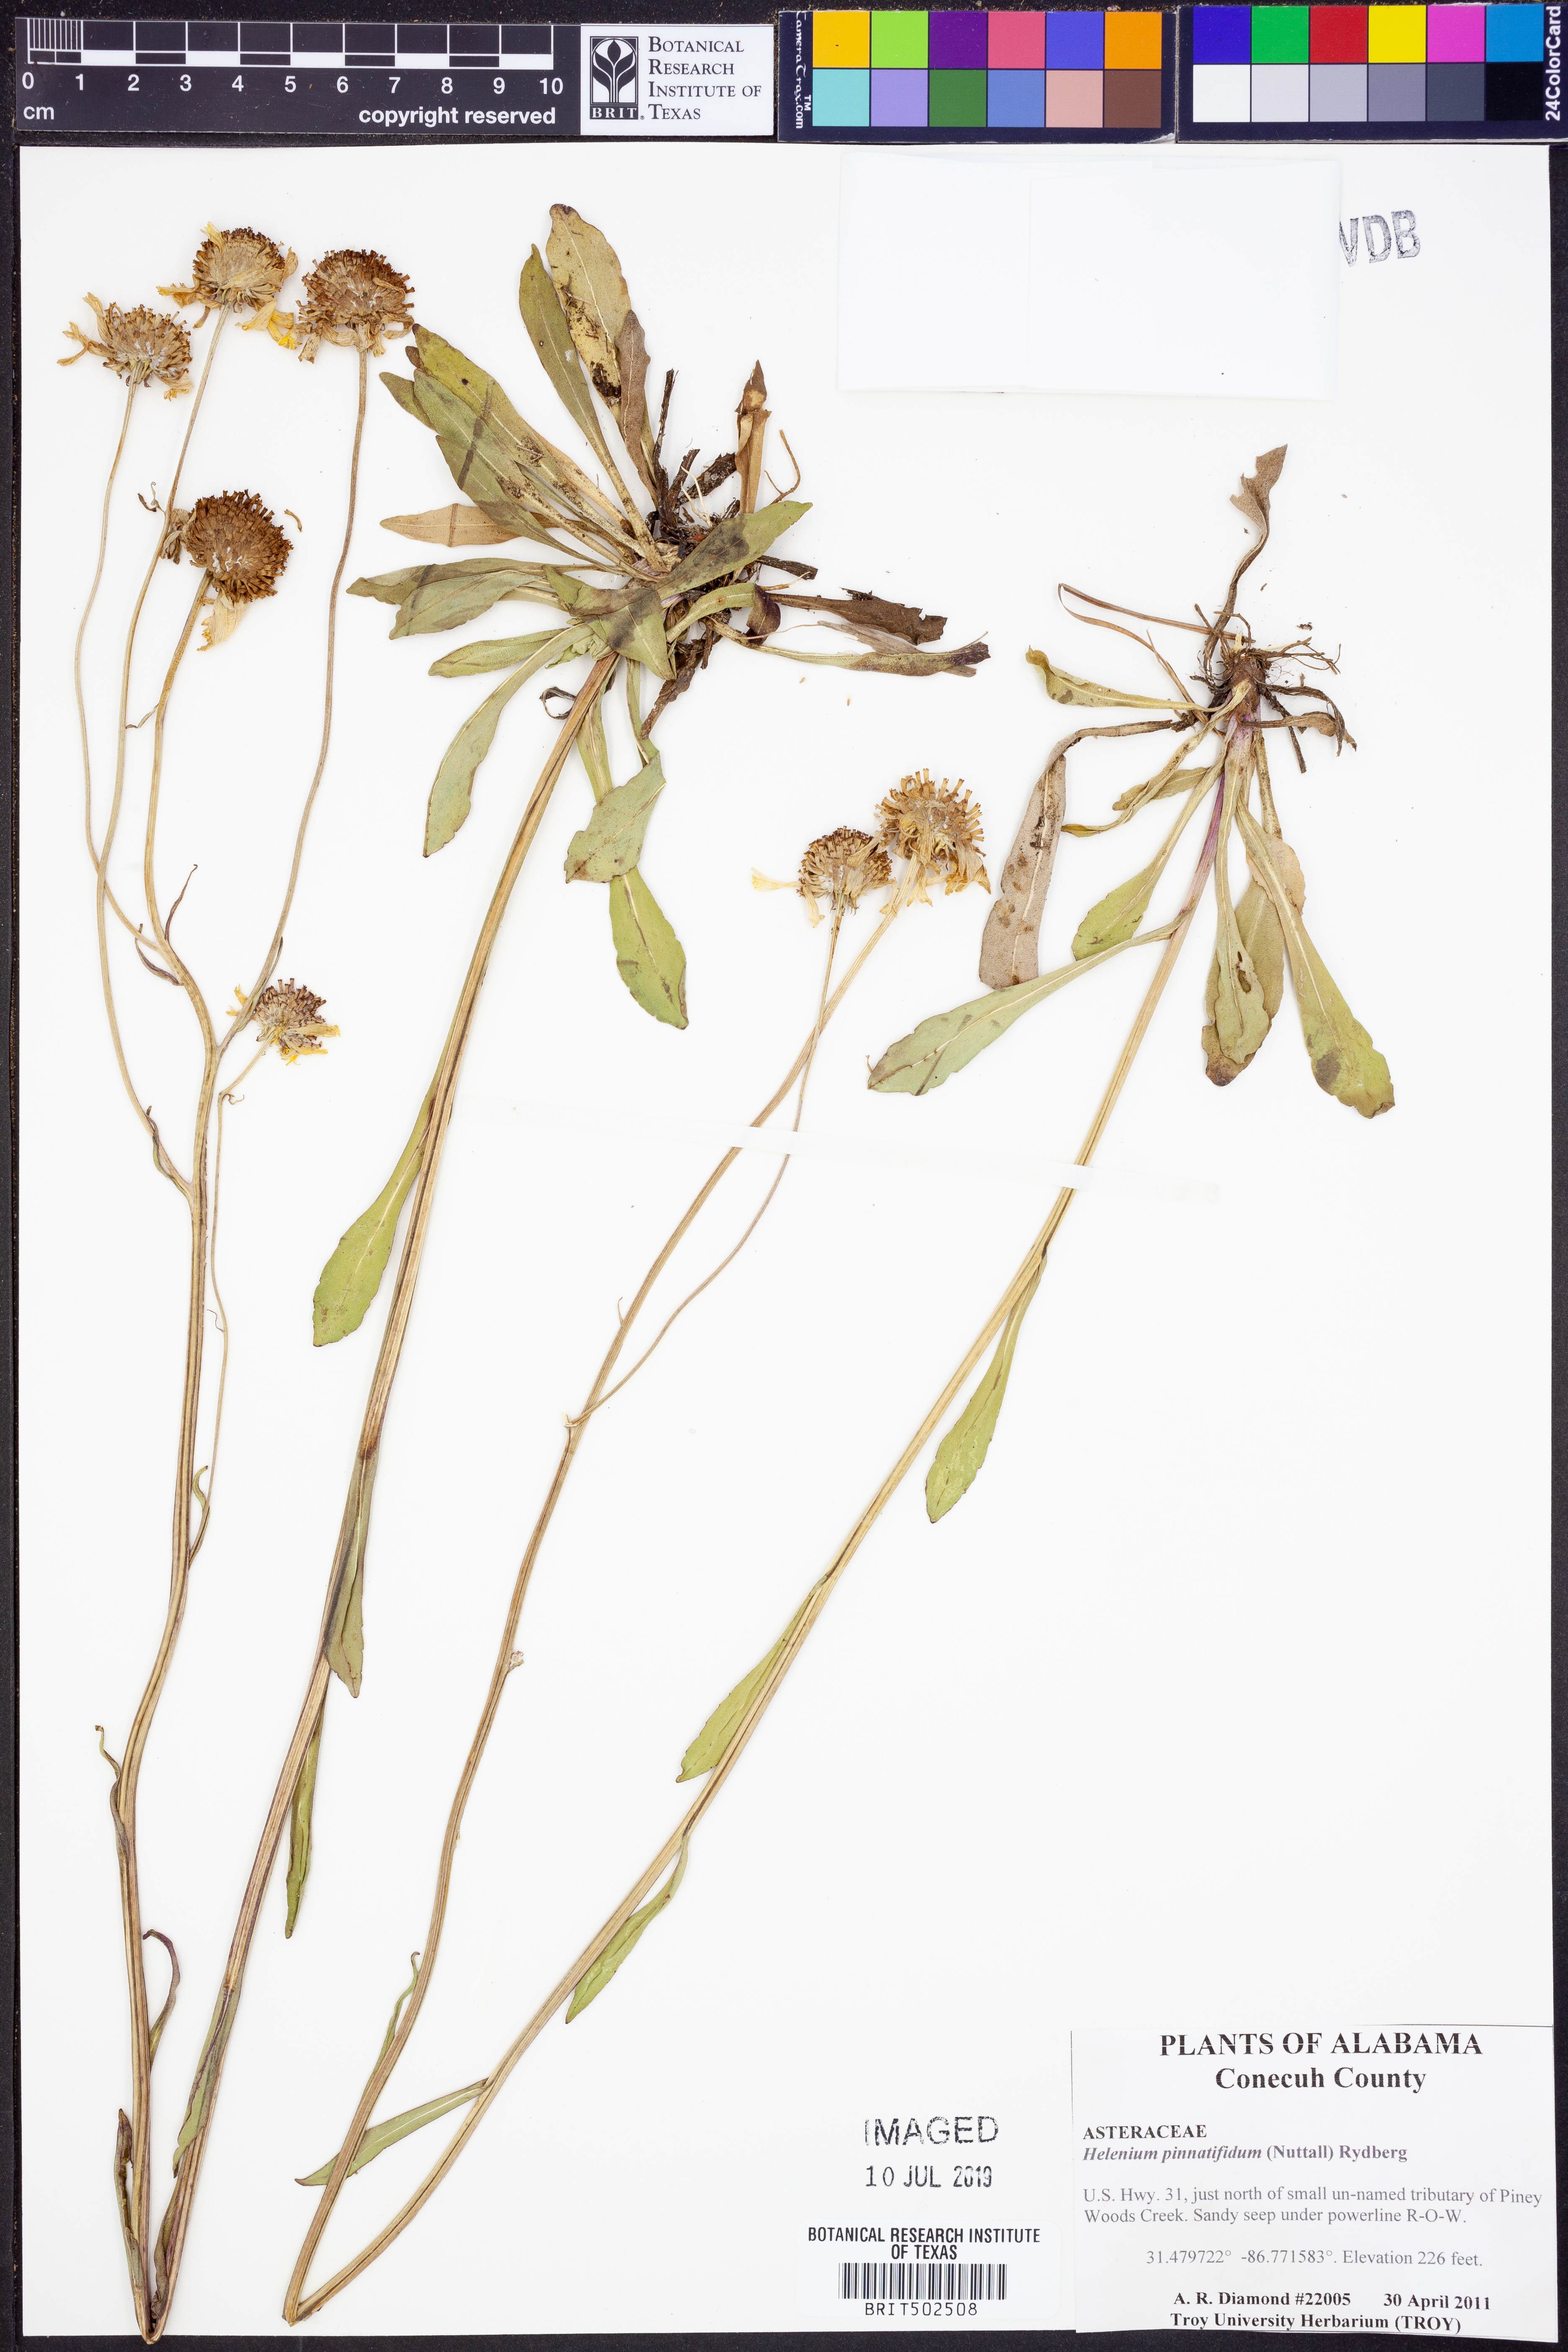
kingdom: Plantae
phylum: Tracheophyta
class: Magnoliopsida
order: Asterales
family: Asteraceae
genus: Helenium
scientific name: Helenium pinnatifidum
